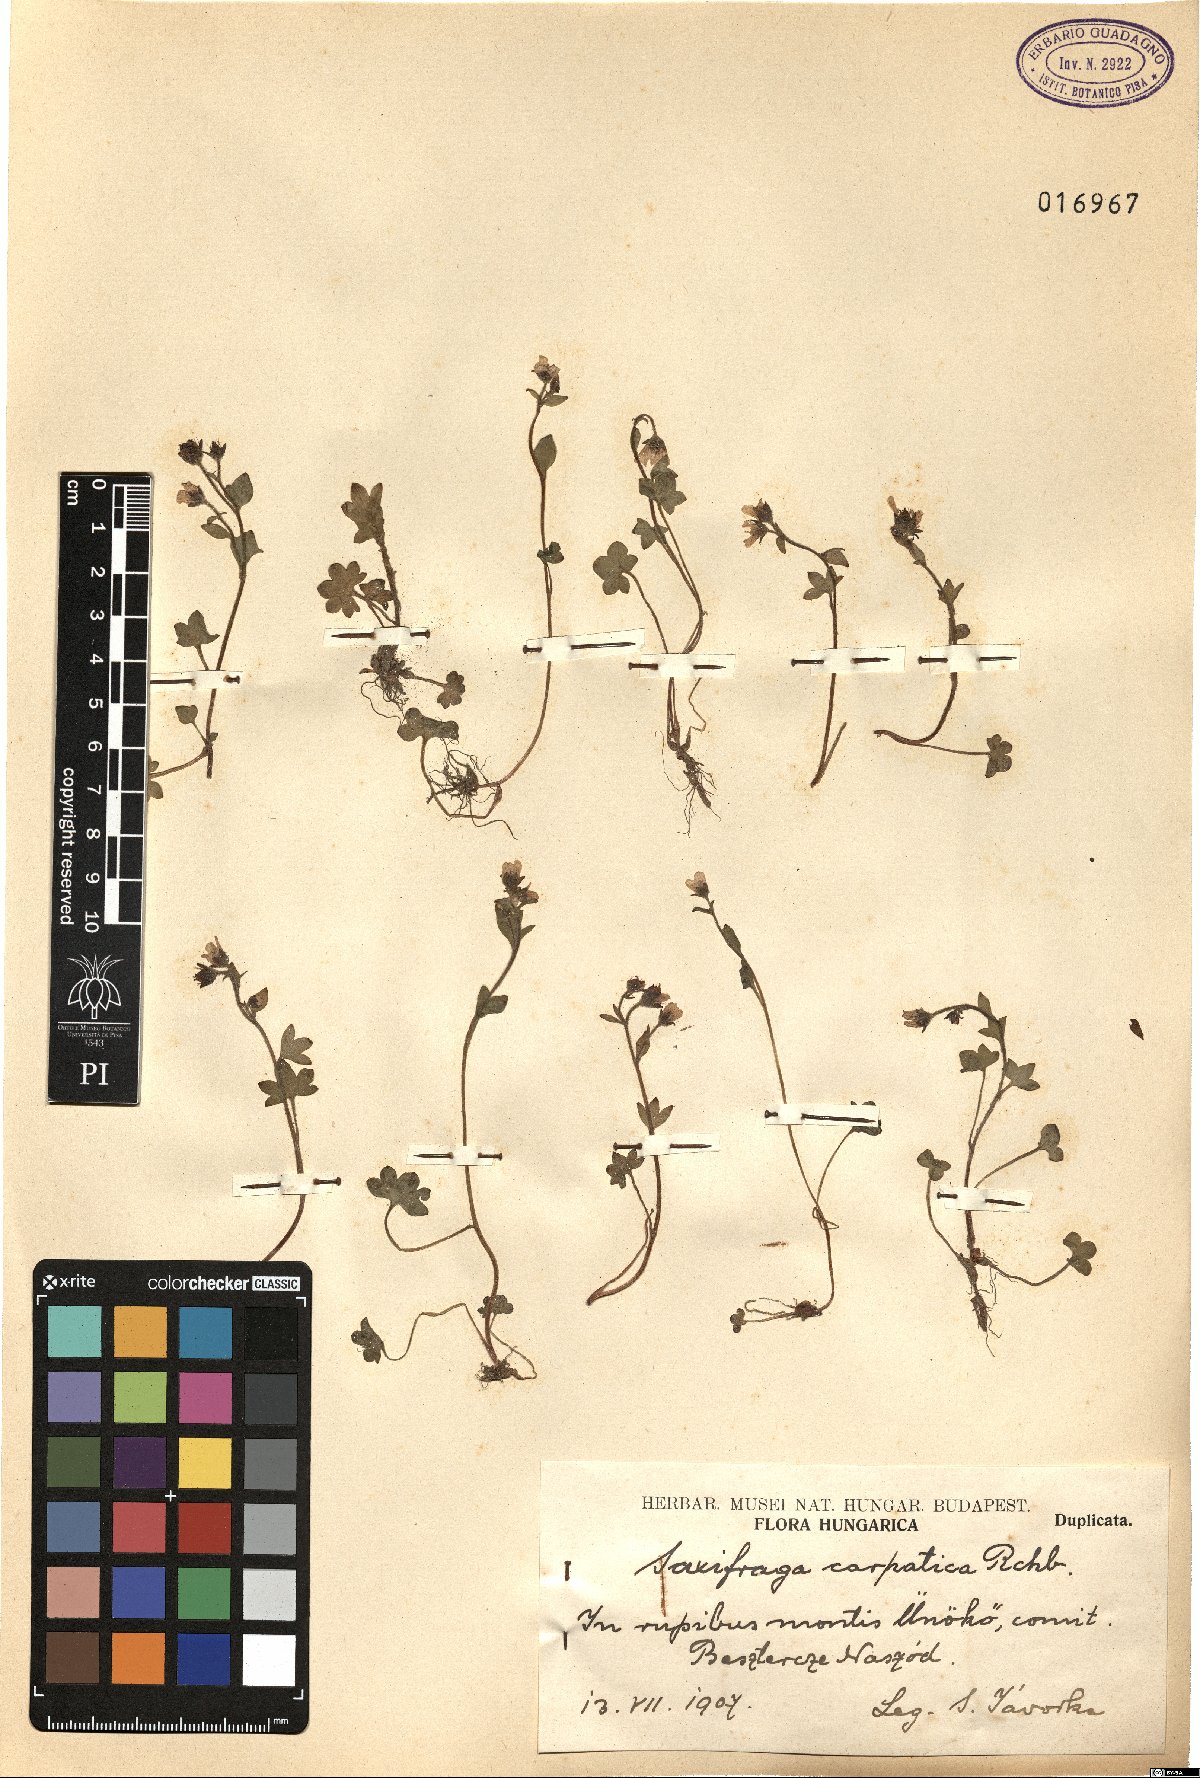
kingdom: Plantae
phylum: Tracheophyta
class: Magnoliopsida
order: Saxifragales
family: Saxifragaceae
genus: Saxifraga
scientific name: Saxifraga carpatica
